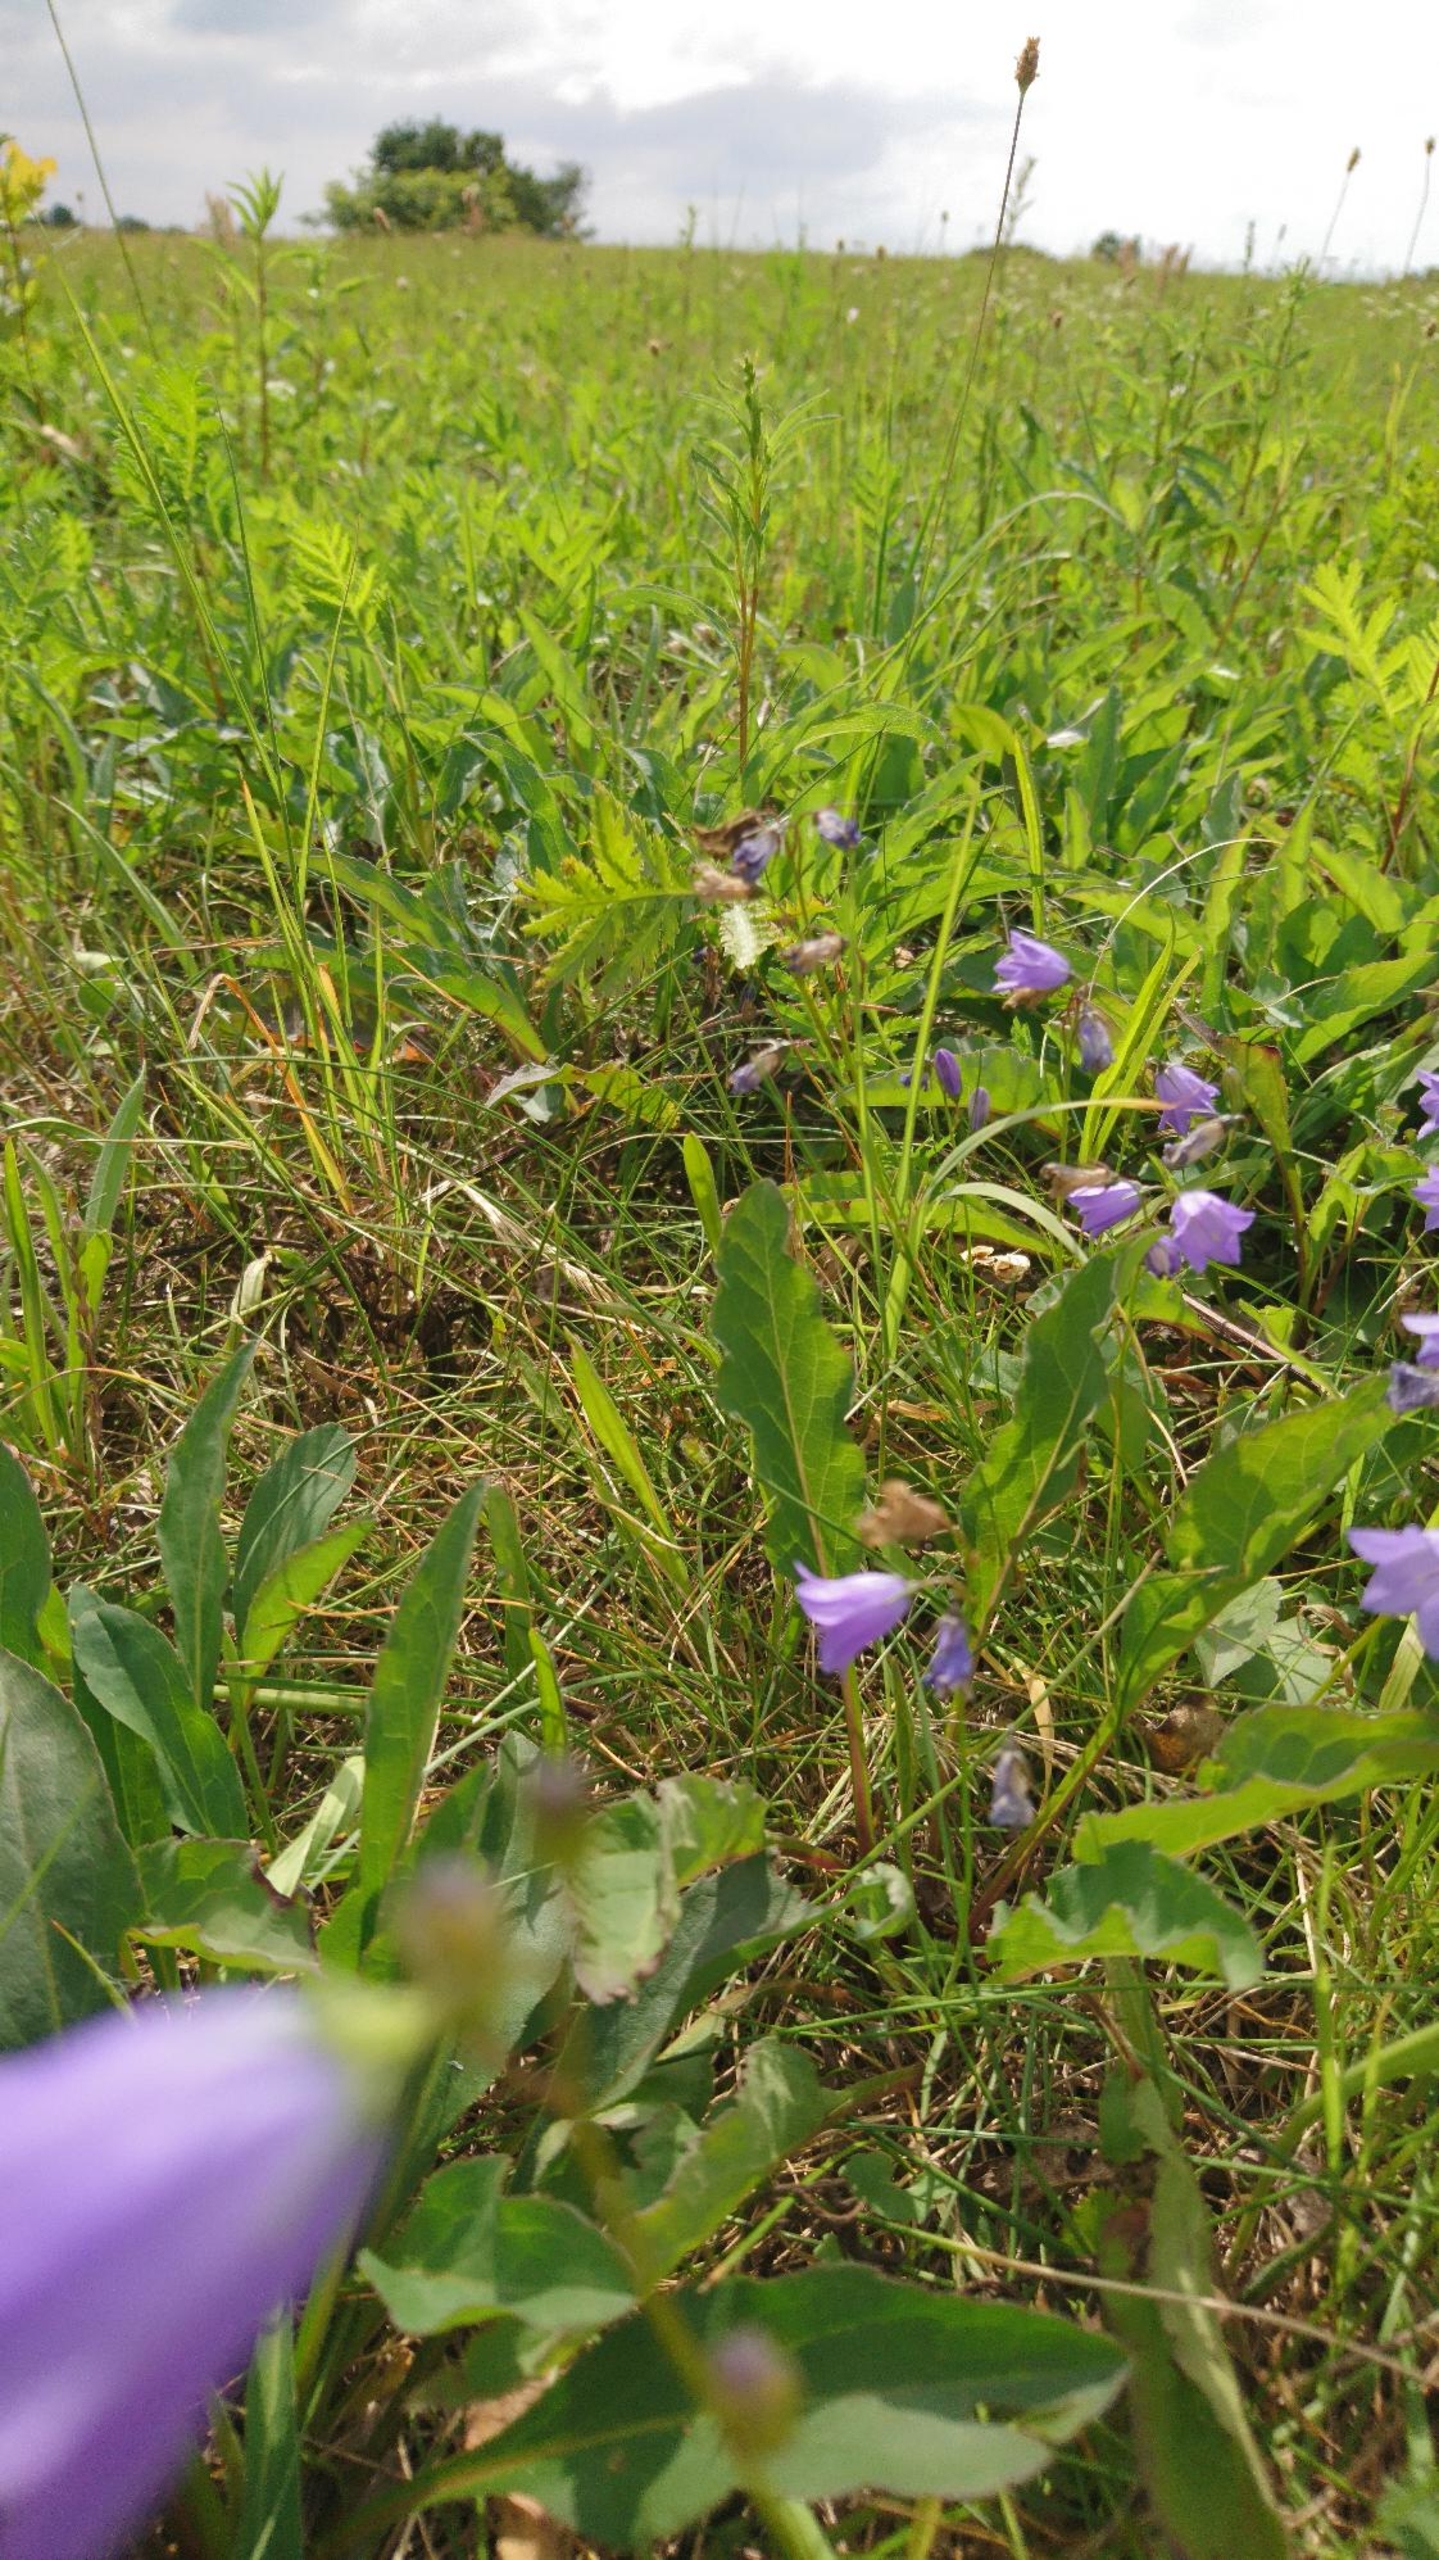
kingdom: Plantae
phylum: Tracheophyta
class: Magnoliopsida
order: Asterales
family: Campanulaceae
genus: Campanula
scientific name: Campanula rotundifolia
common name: Liden klokke
